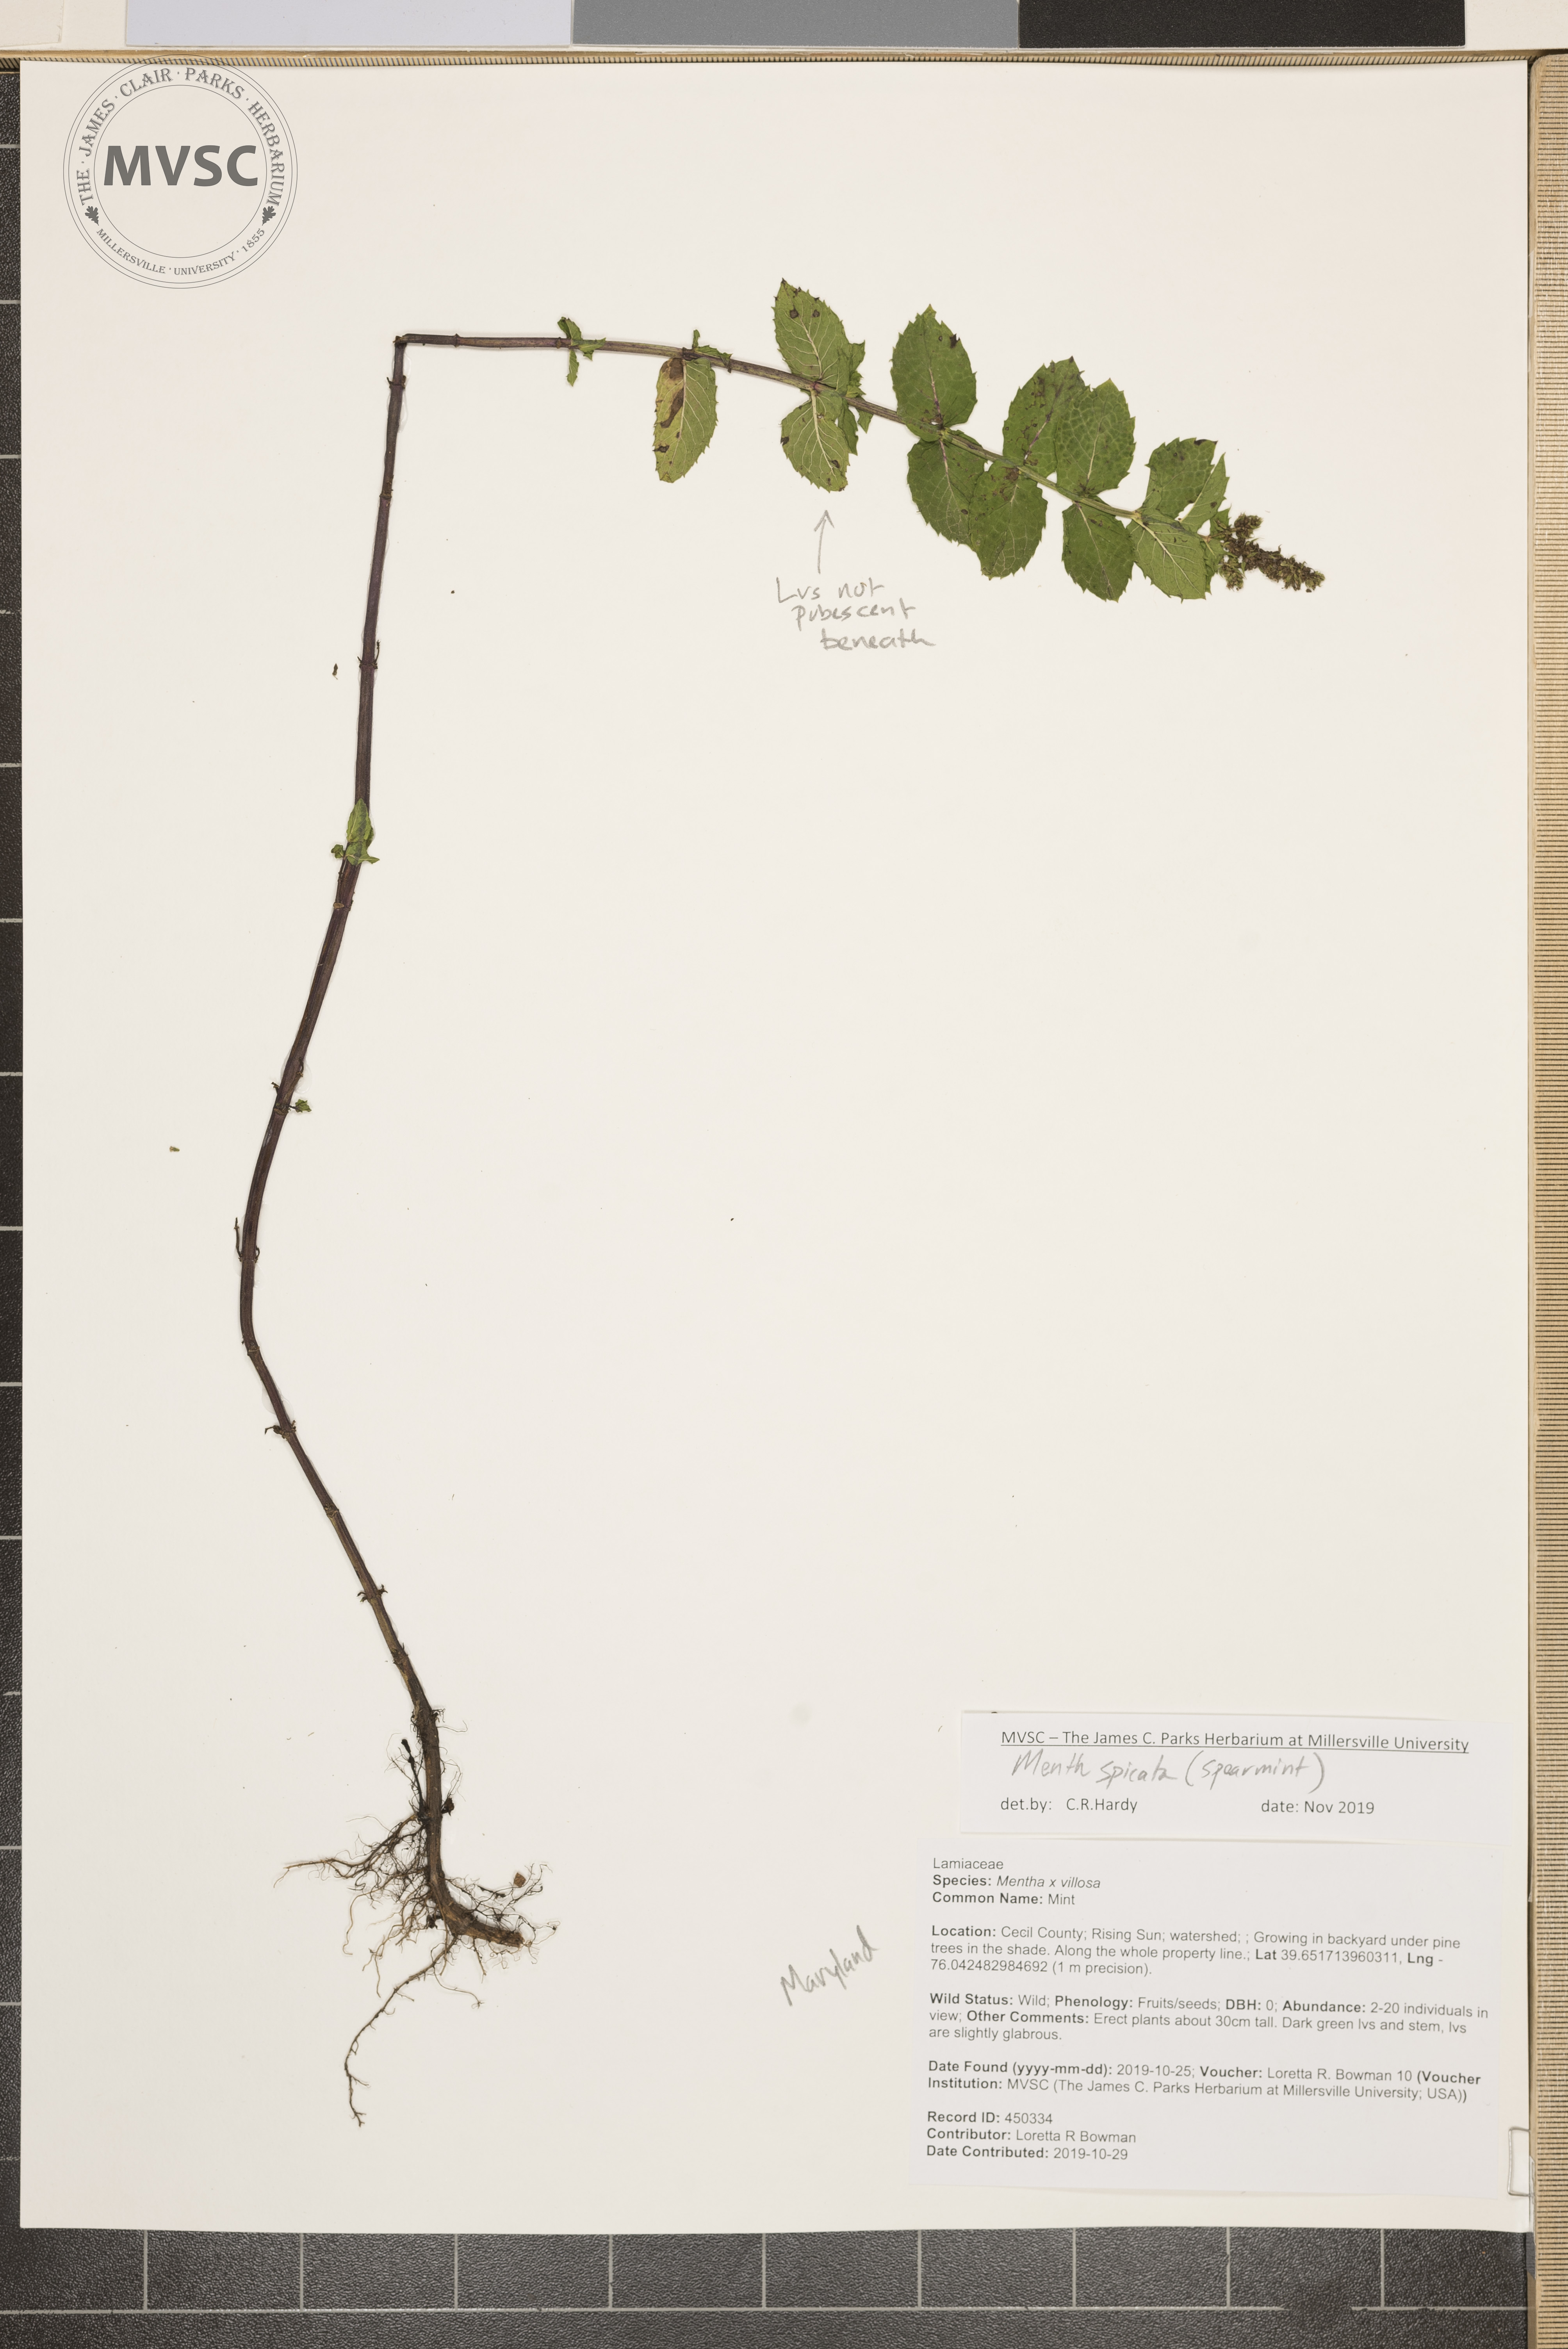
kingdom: Plantae
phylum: Tracheophyta
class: Magnoliopsida
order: Lamiales
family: Lamiaceae
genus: Mentha
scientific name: Mentha spicata
